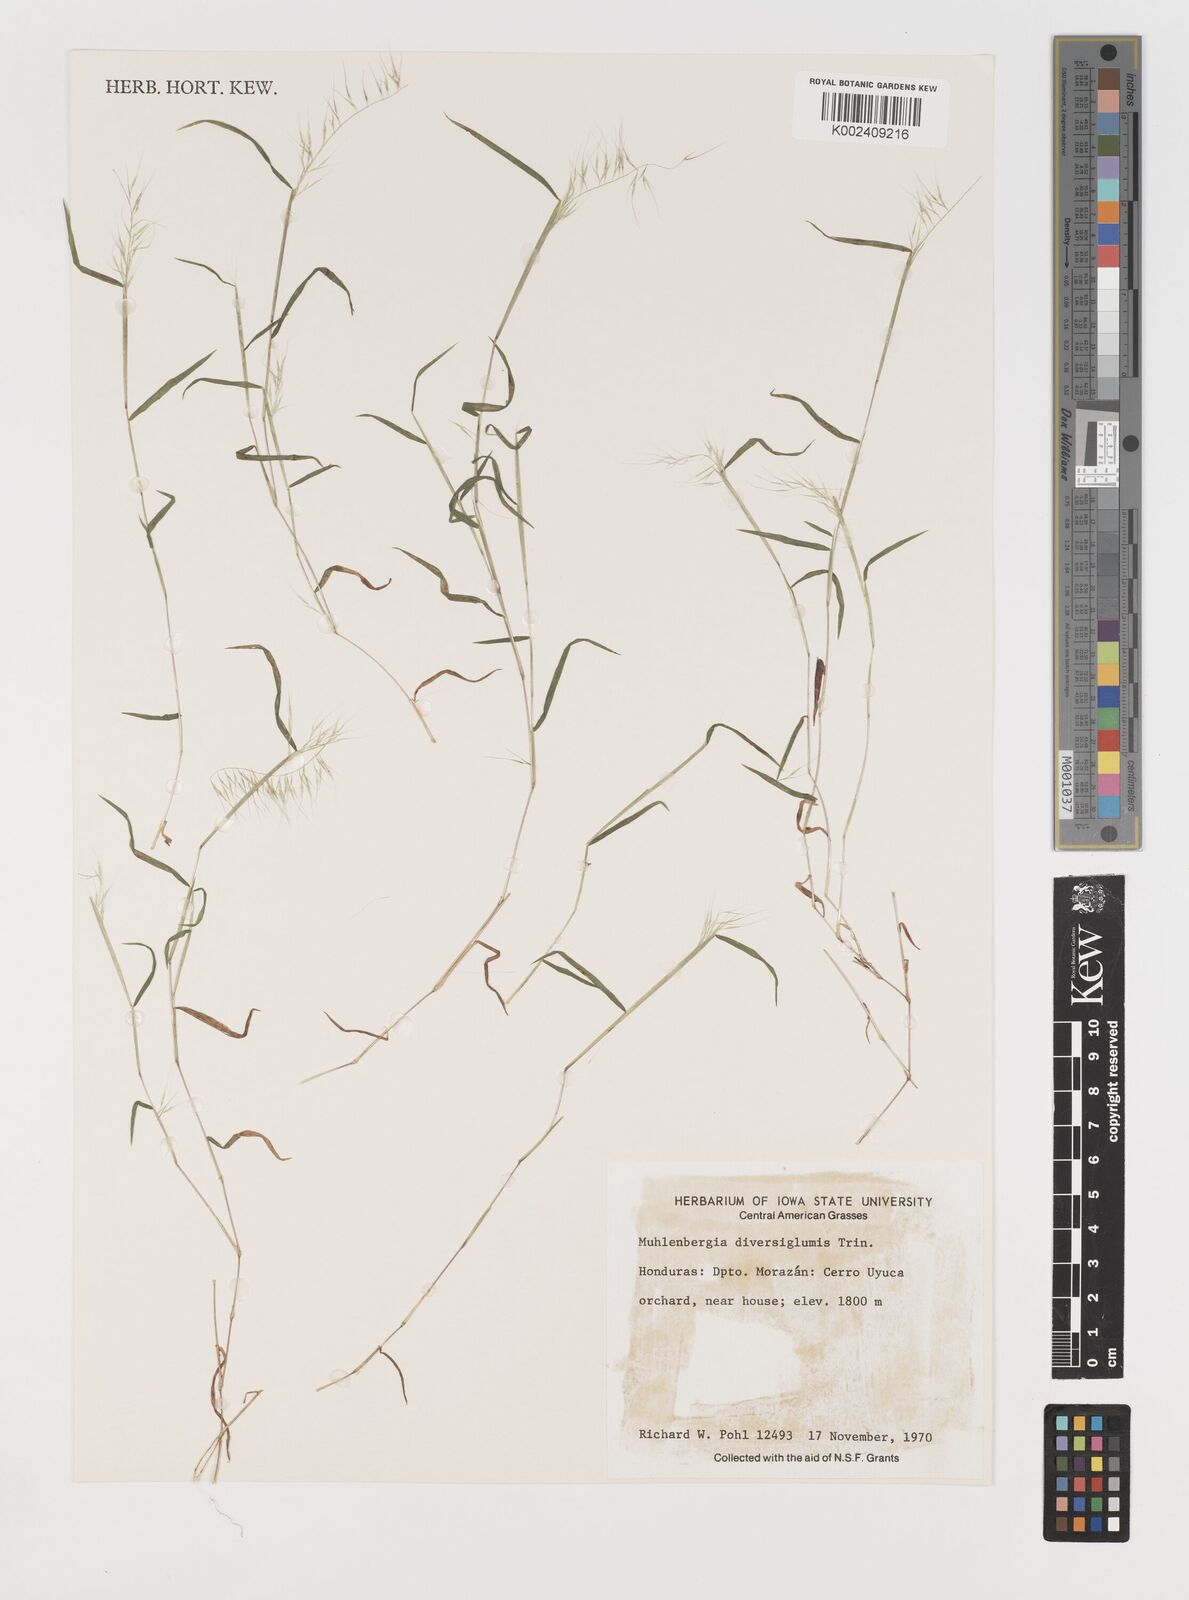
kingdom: Plantae
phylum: Tracheophyta
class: Liliopsida
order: Poales
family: Poaceae
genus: Muhlenbergia
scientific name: Muhlenbergia diversiglumis
